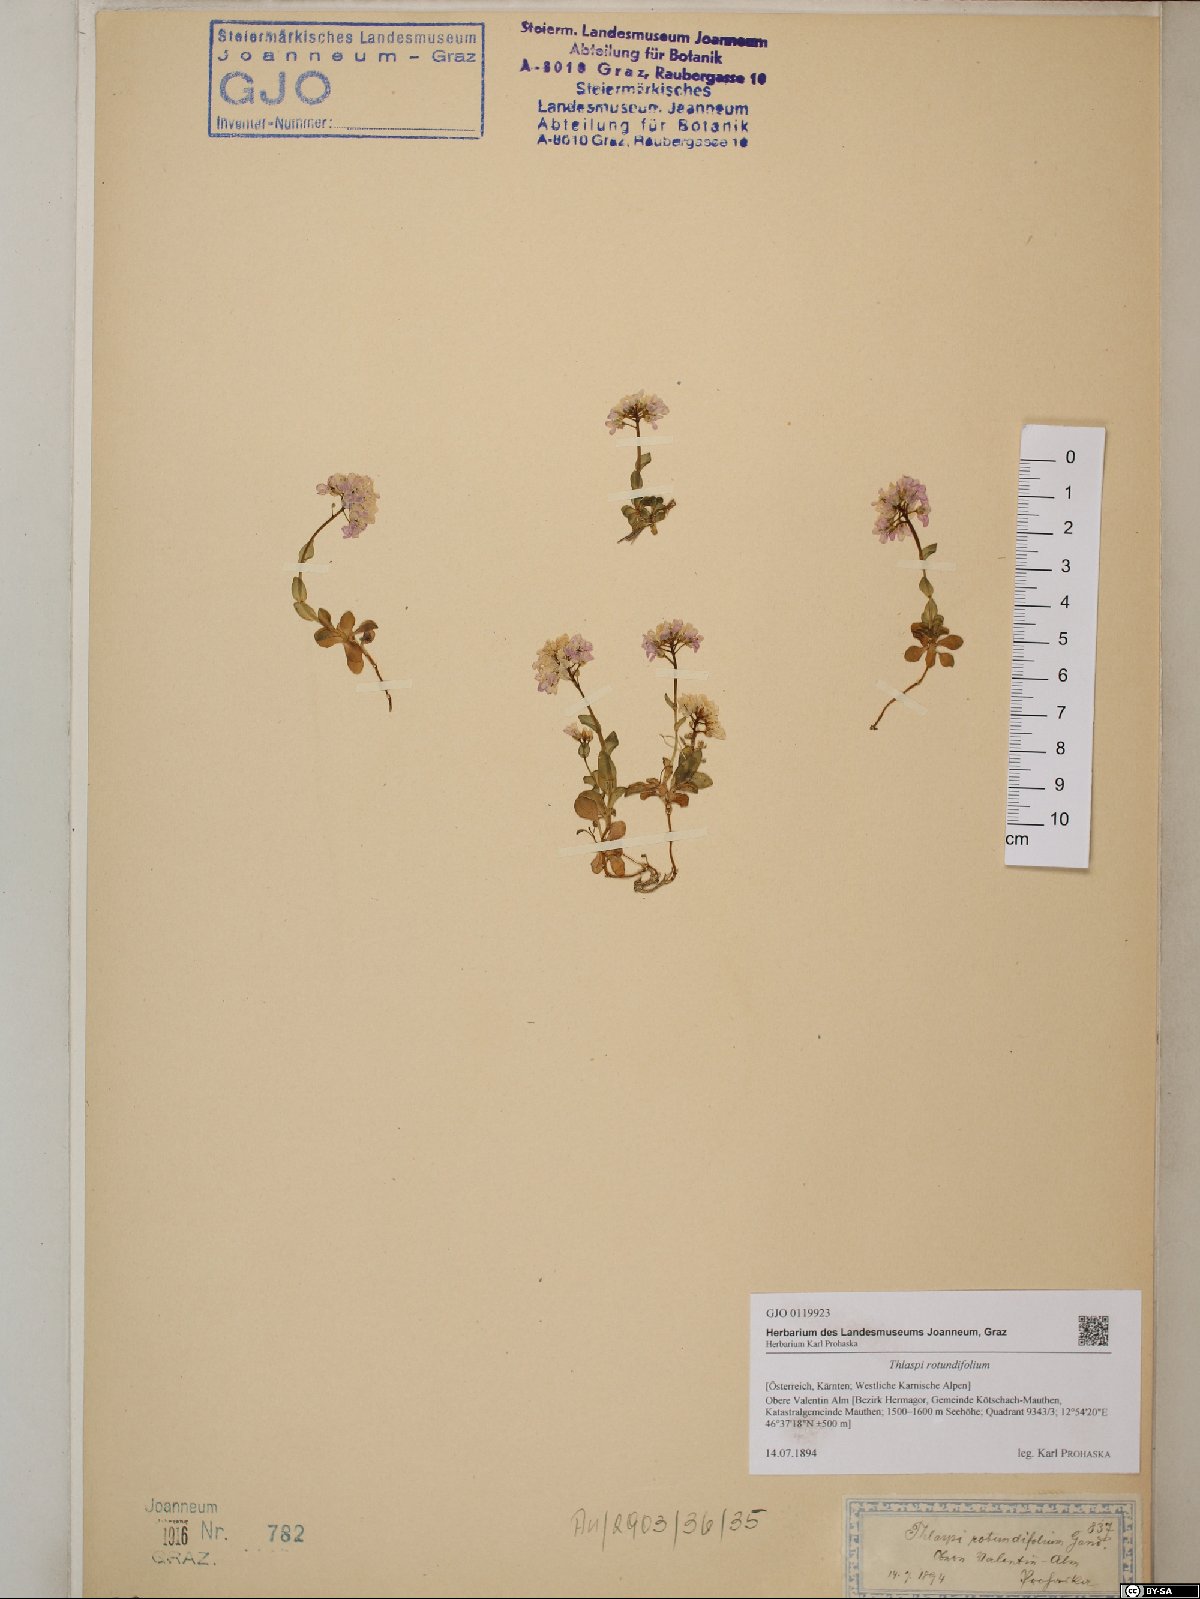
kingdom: Plantae
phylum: Tracheophyta
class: Magnoliopsida
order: Brassicales
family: Brassicaceae
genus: Noccaea
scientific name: Noccaea rotundifolia
